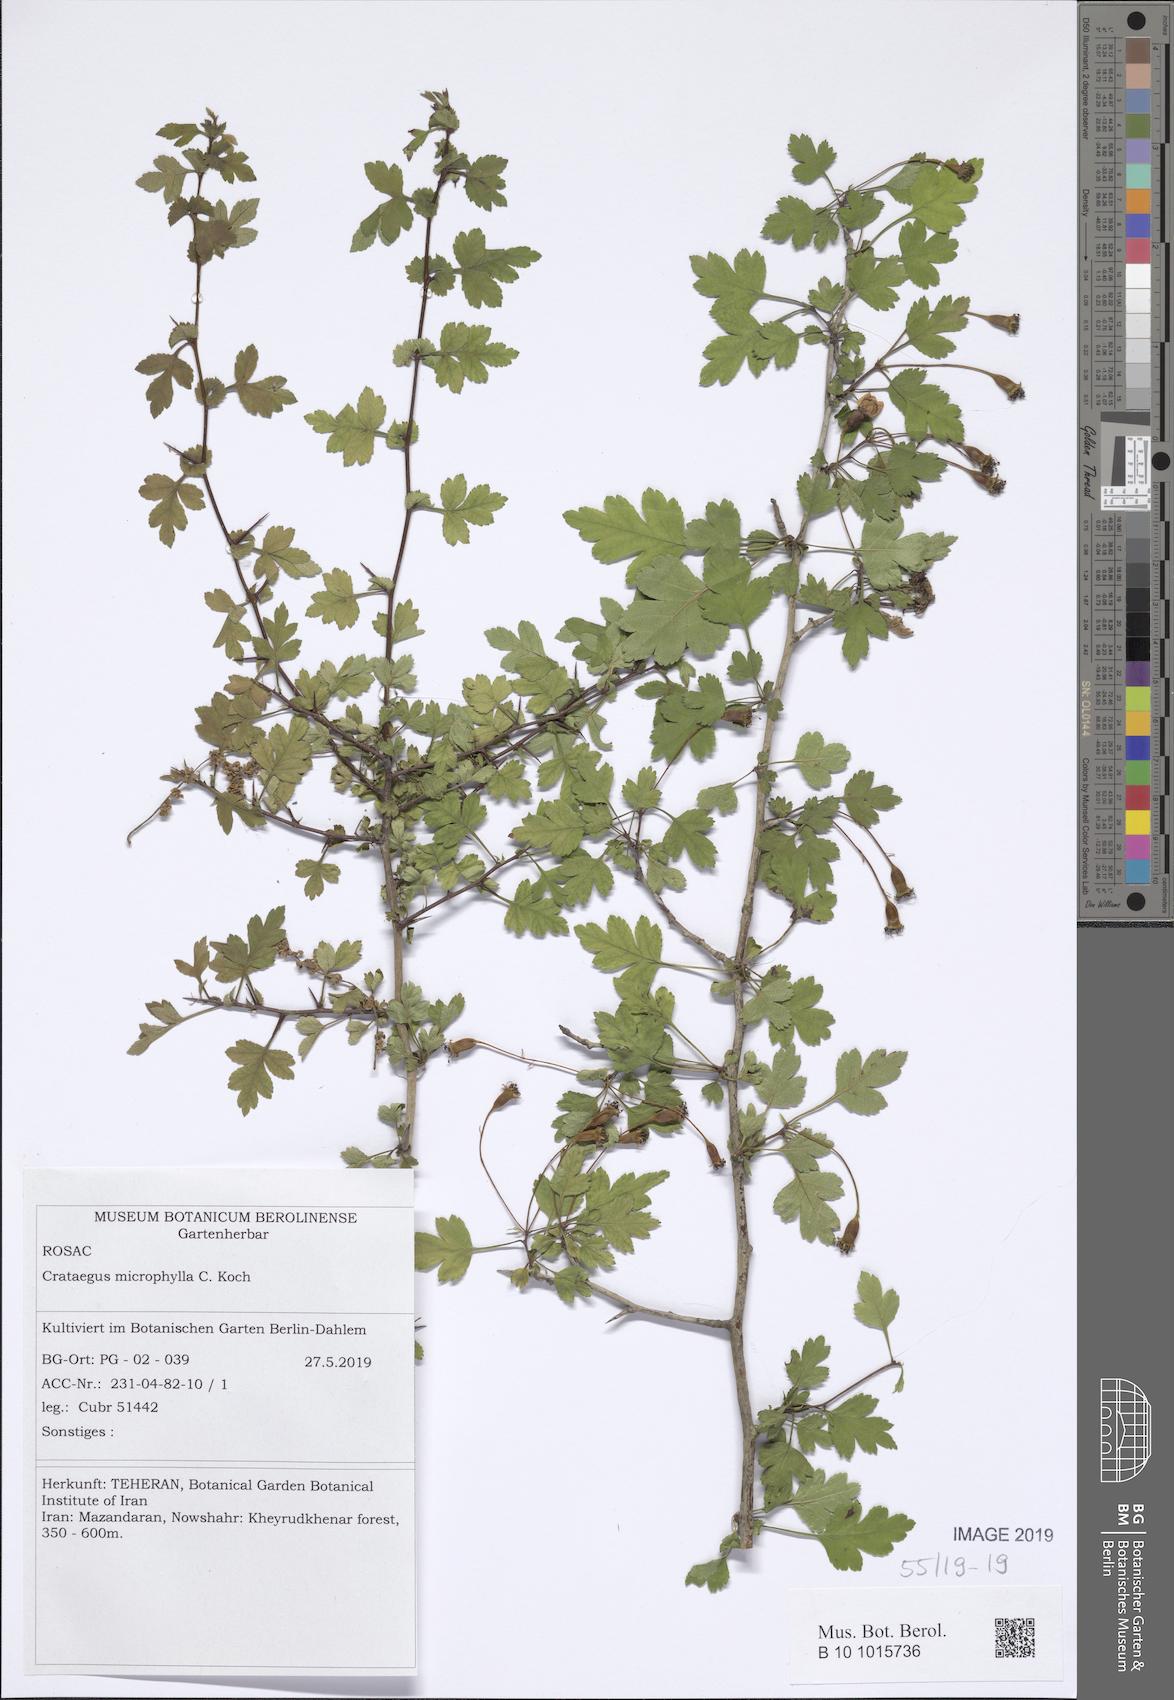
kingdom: Plantae
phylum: Tracheophyta
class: Magnoliopsida
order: Rosales
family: Rosaceae
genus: Crataegus
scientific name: Crataegus microphylla
